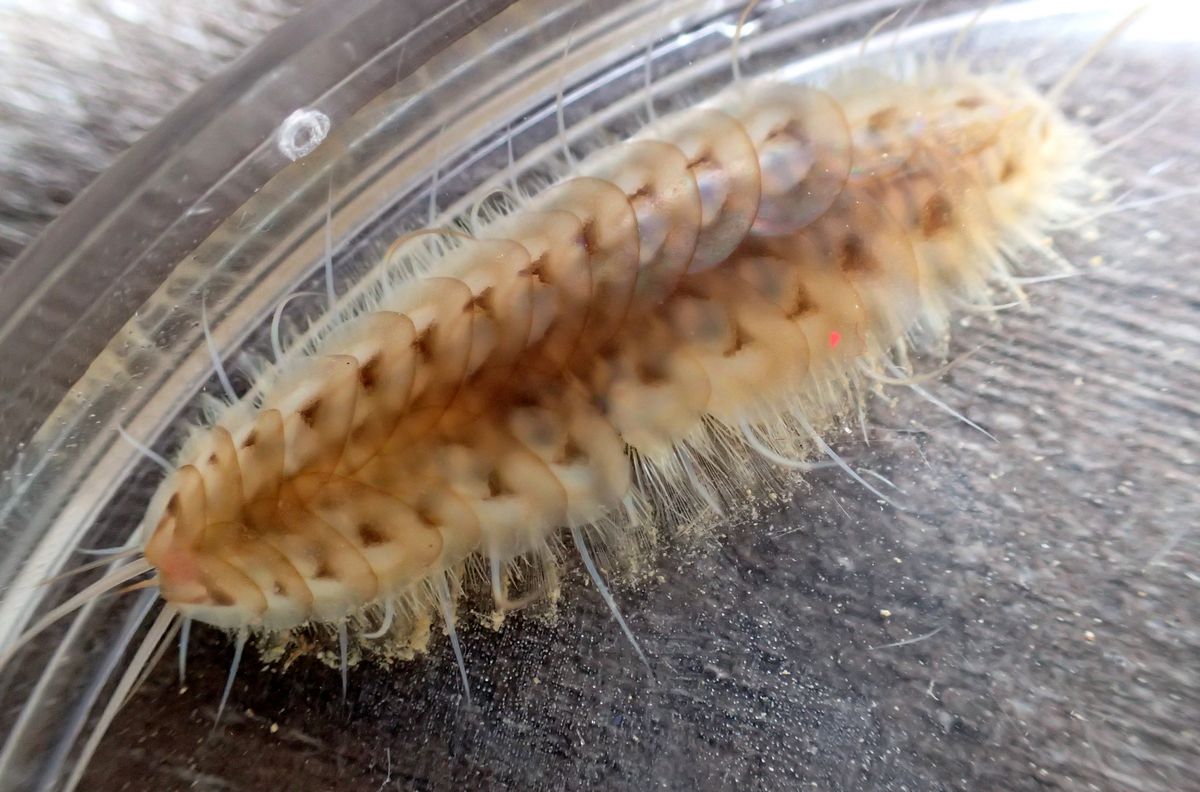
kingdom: Animalia
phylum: Annelida
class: Polychaeta
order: Phyllodocida
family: Polynoidae
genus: Harmothoe
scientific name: Harmothoe sarsi
